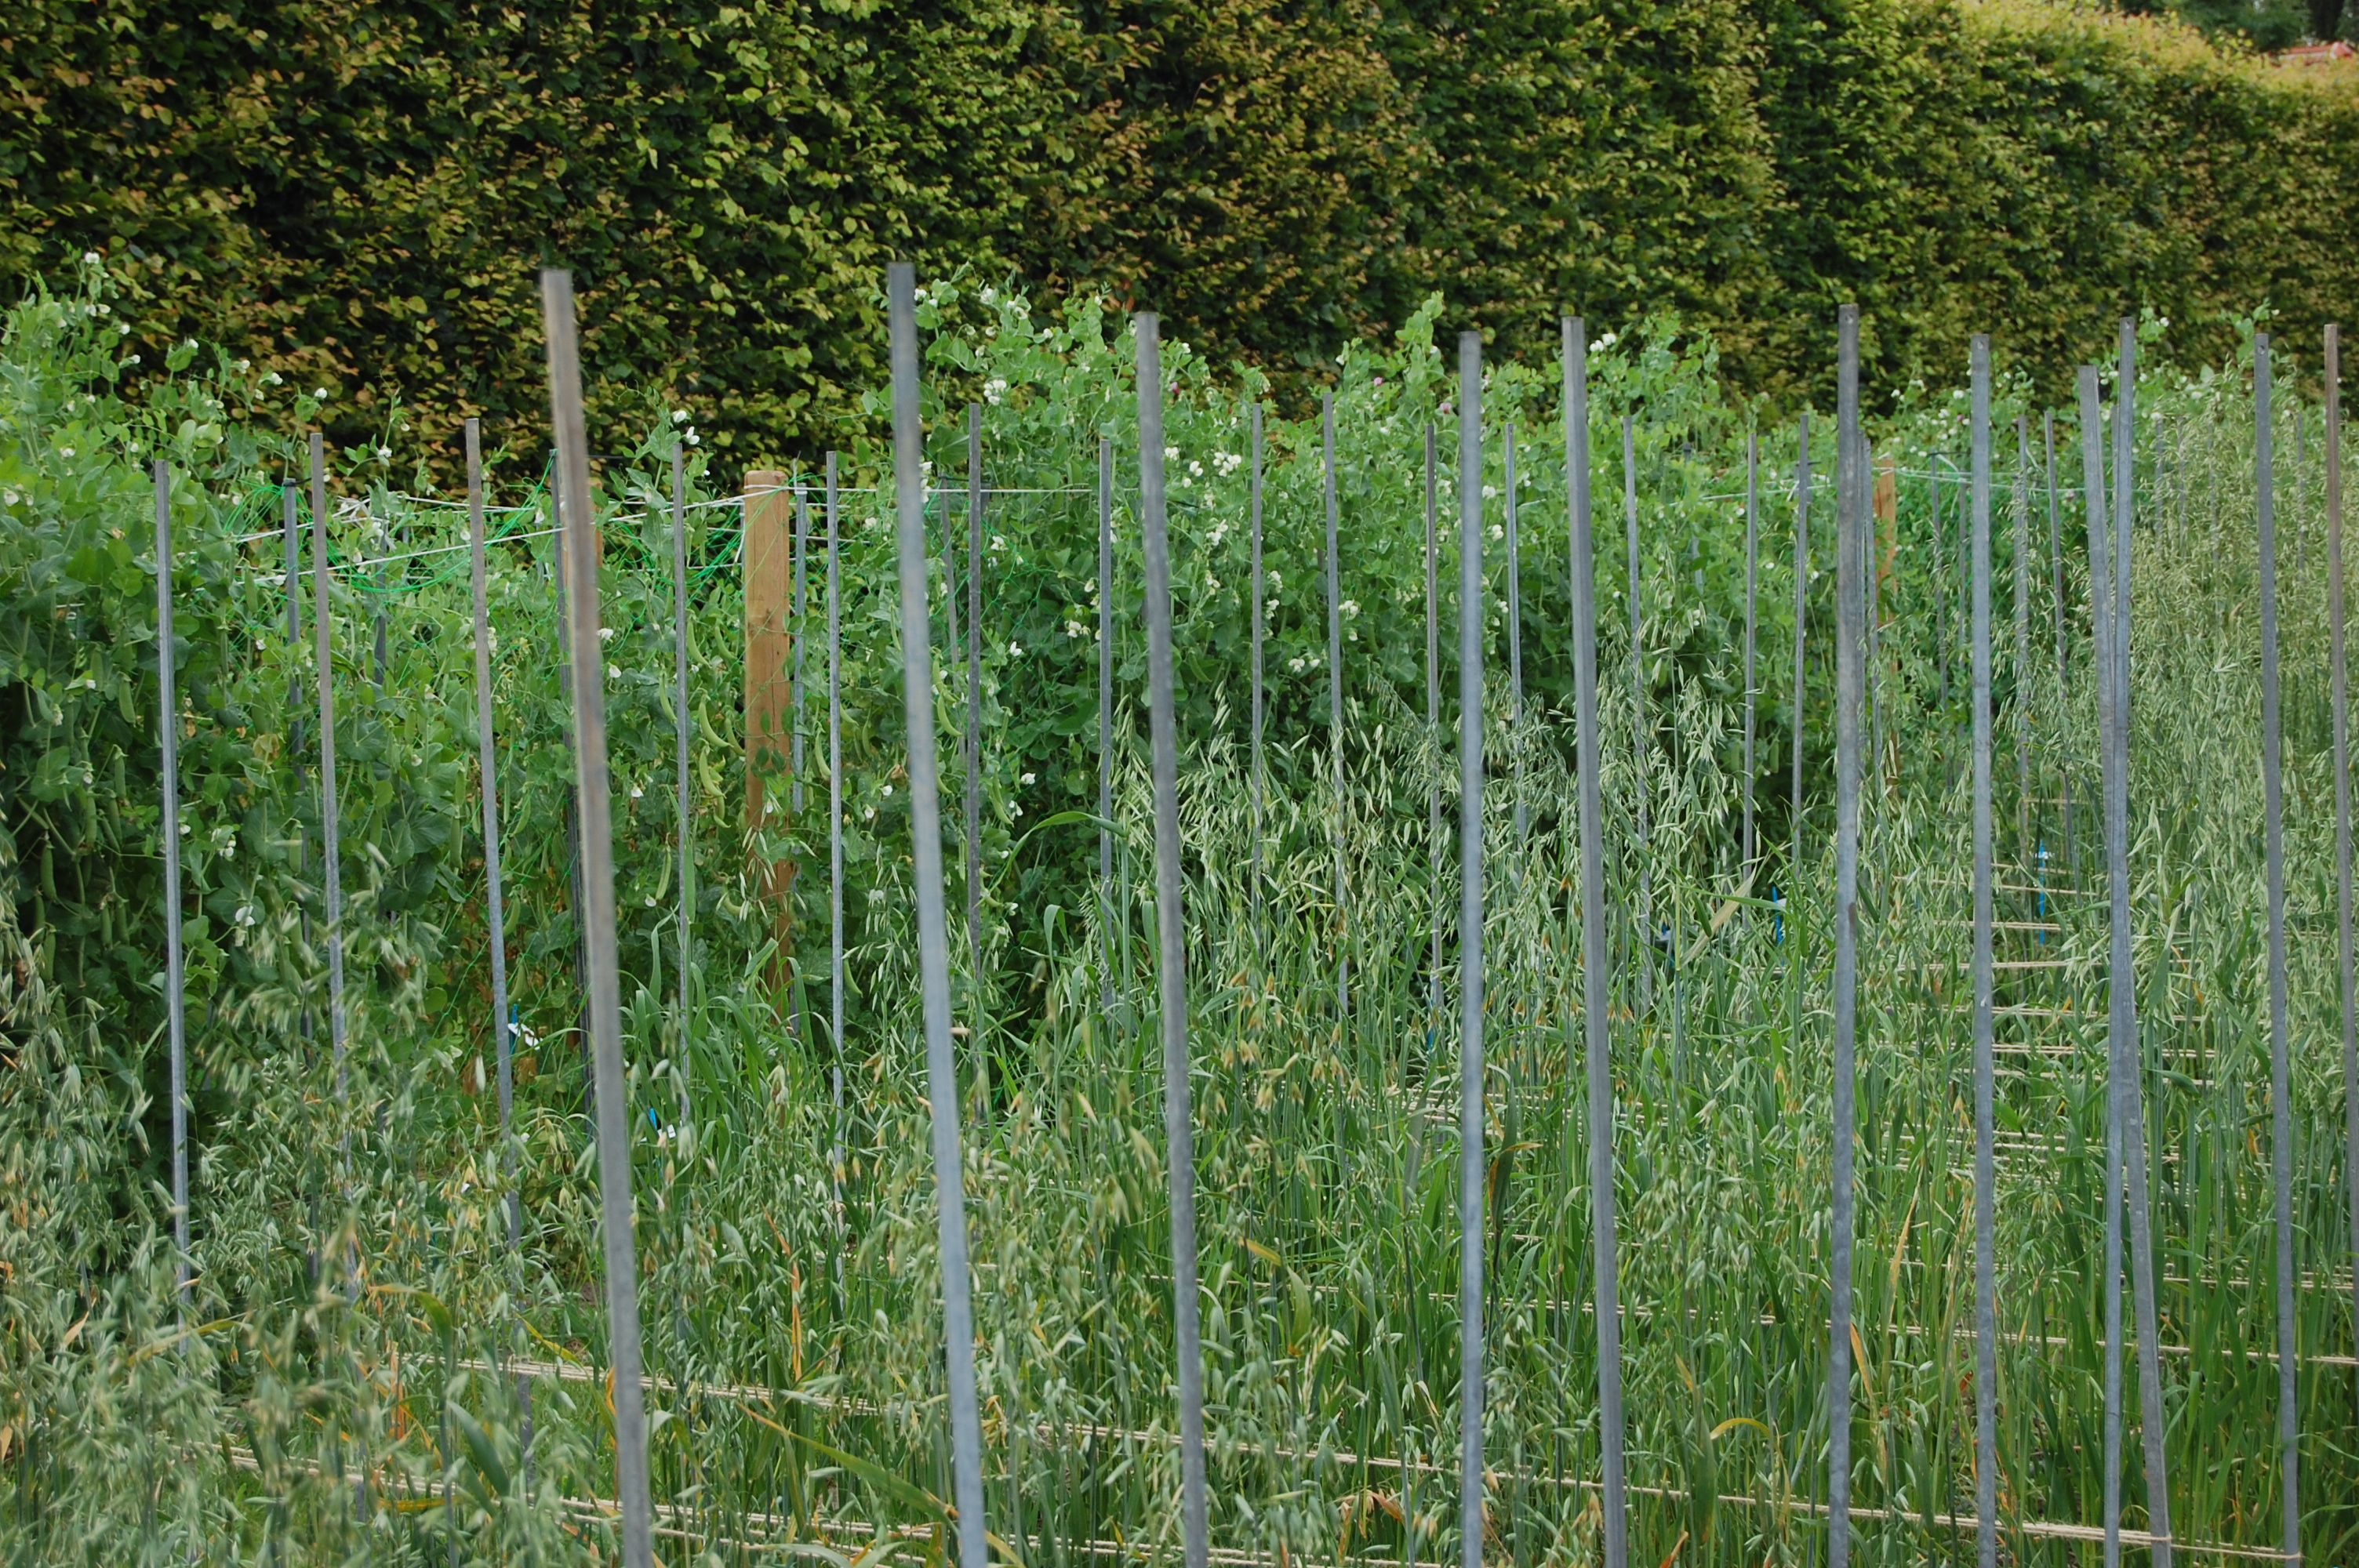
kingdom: Plantae
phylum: Tracheophyta
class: Liliopsida
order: Poales
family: Poaceae
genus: Secale
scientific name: Secale cereale
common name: Rye
